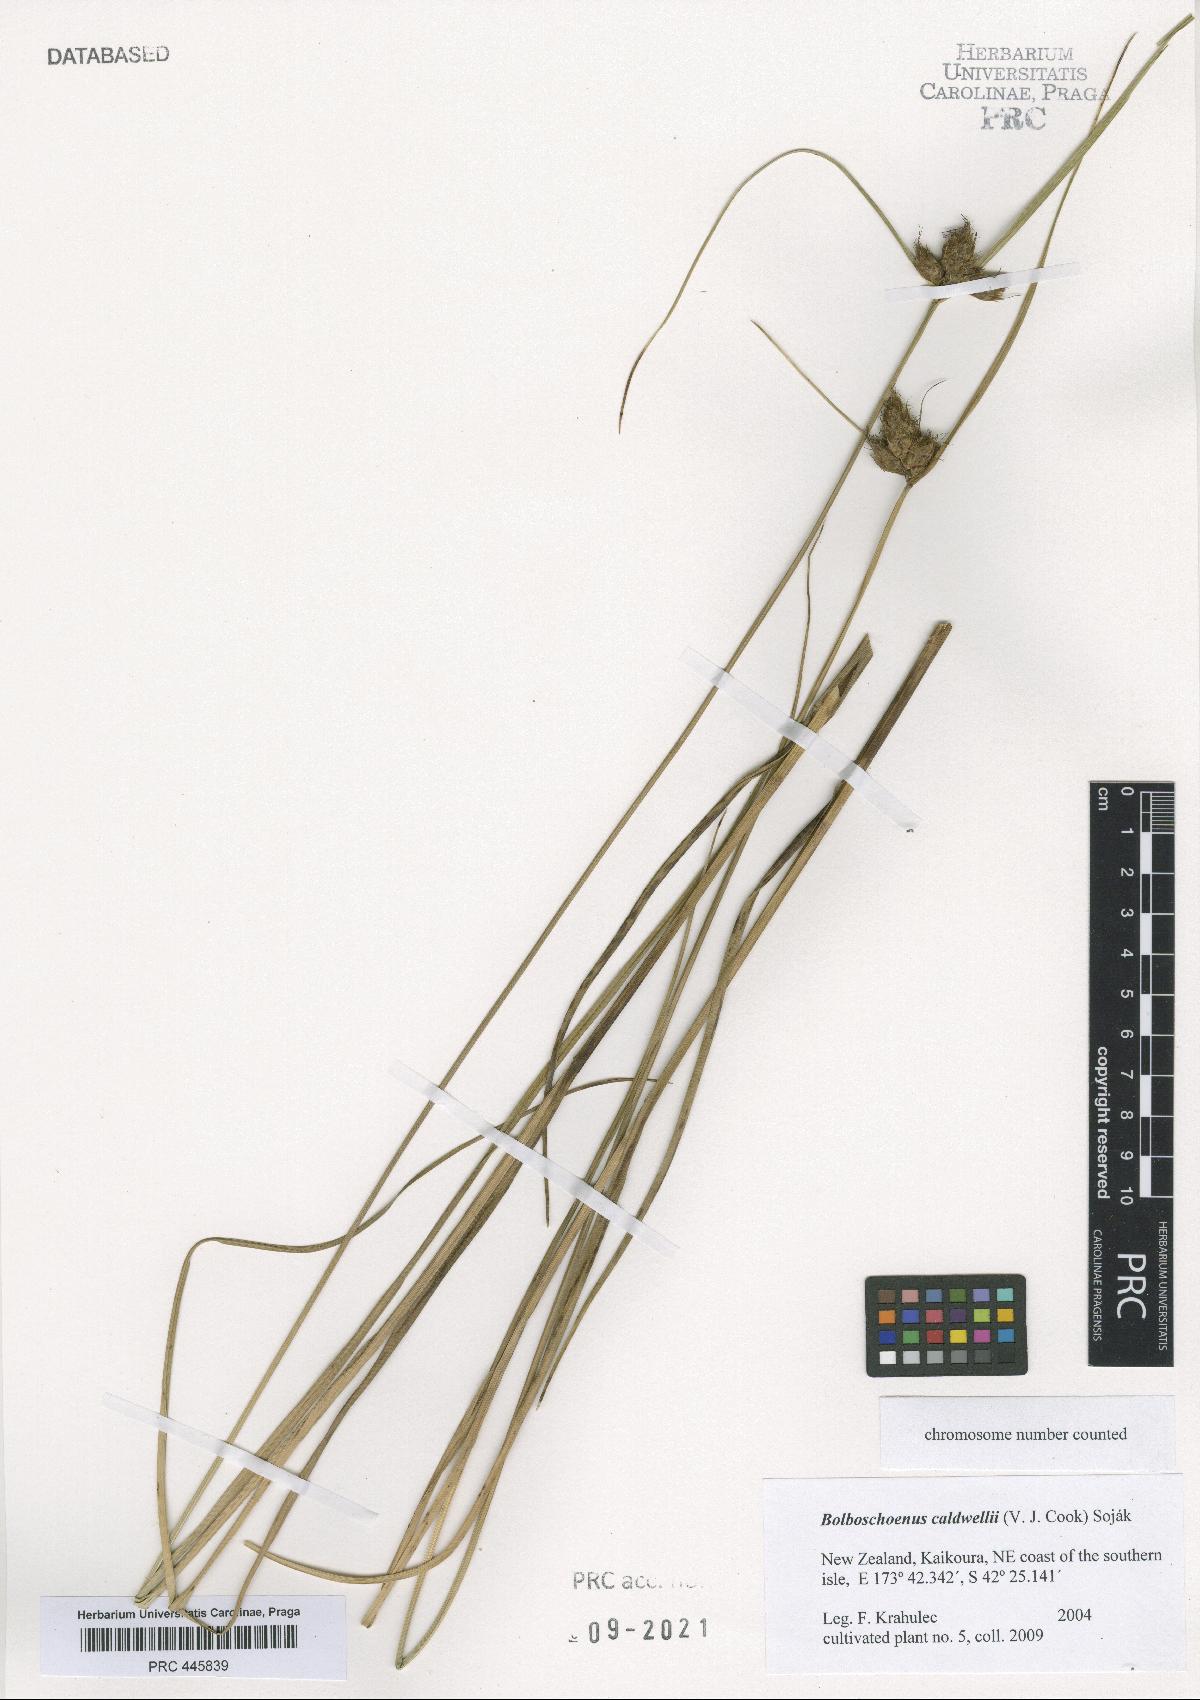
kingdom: Plantae
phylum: Tracheophyta
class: Liliopsida
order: Poales
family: Cyperaceae
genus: Bolboschoenus
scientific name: Bolboschoenus caldwellii
